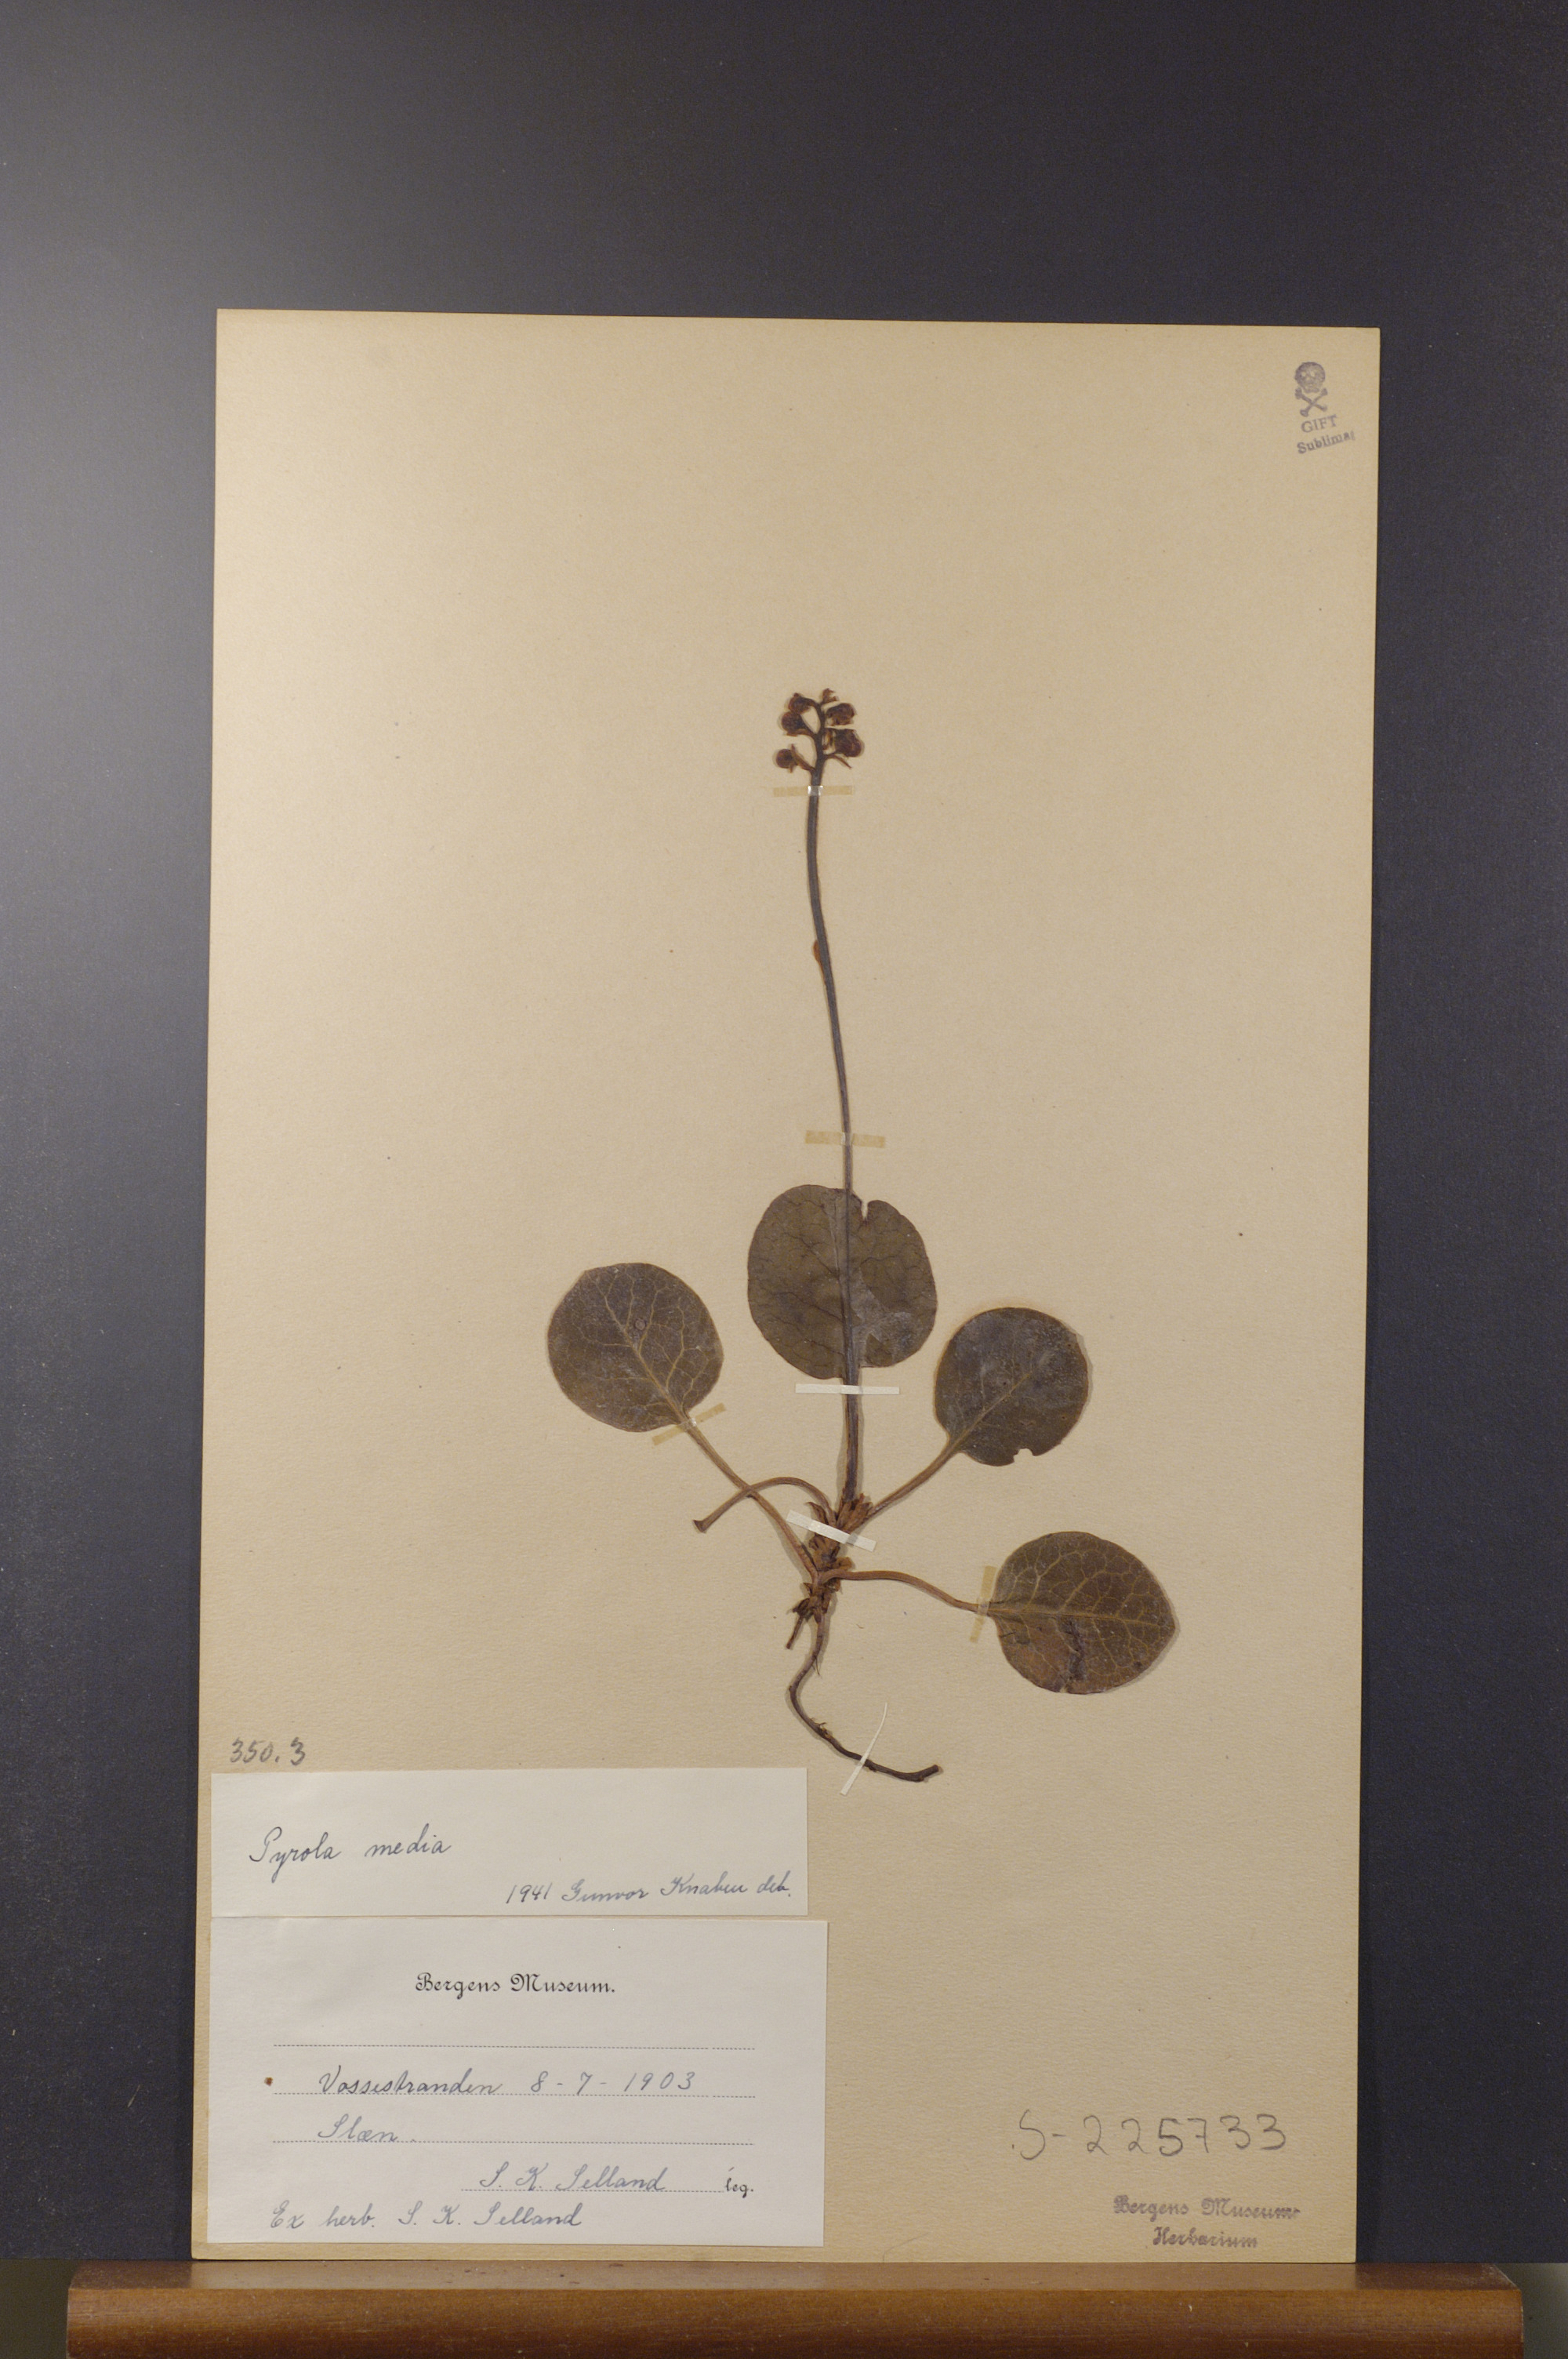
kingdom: Plantae
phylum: Tracheophyta
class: Magnoliopsida
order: Ericales
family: Ericaceae
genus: Pyrola
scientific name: Pyrola media
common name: Intermediate wintergreen
